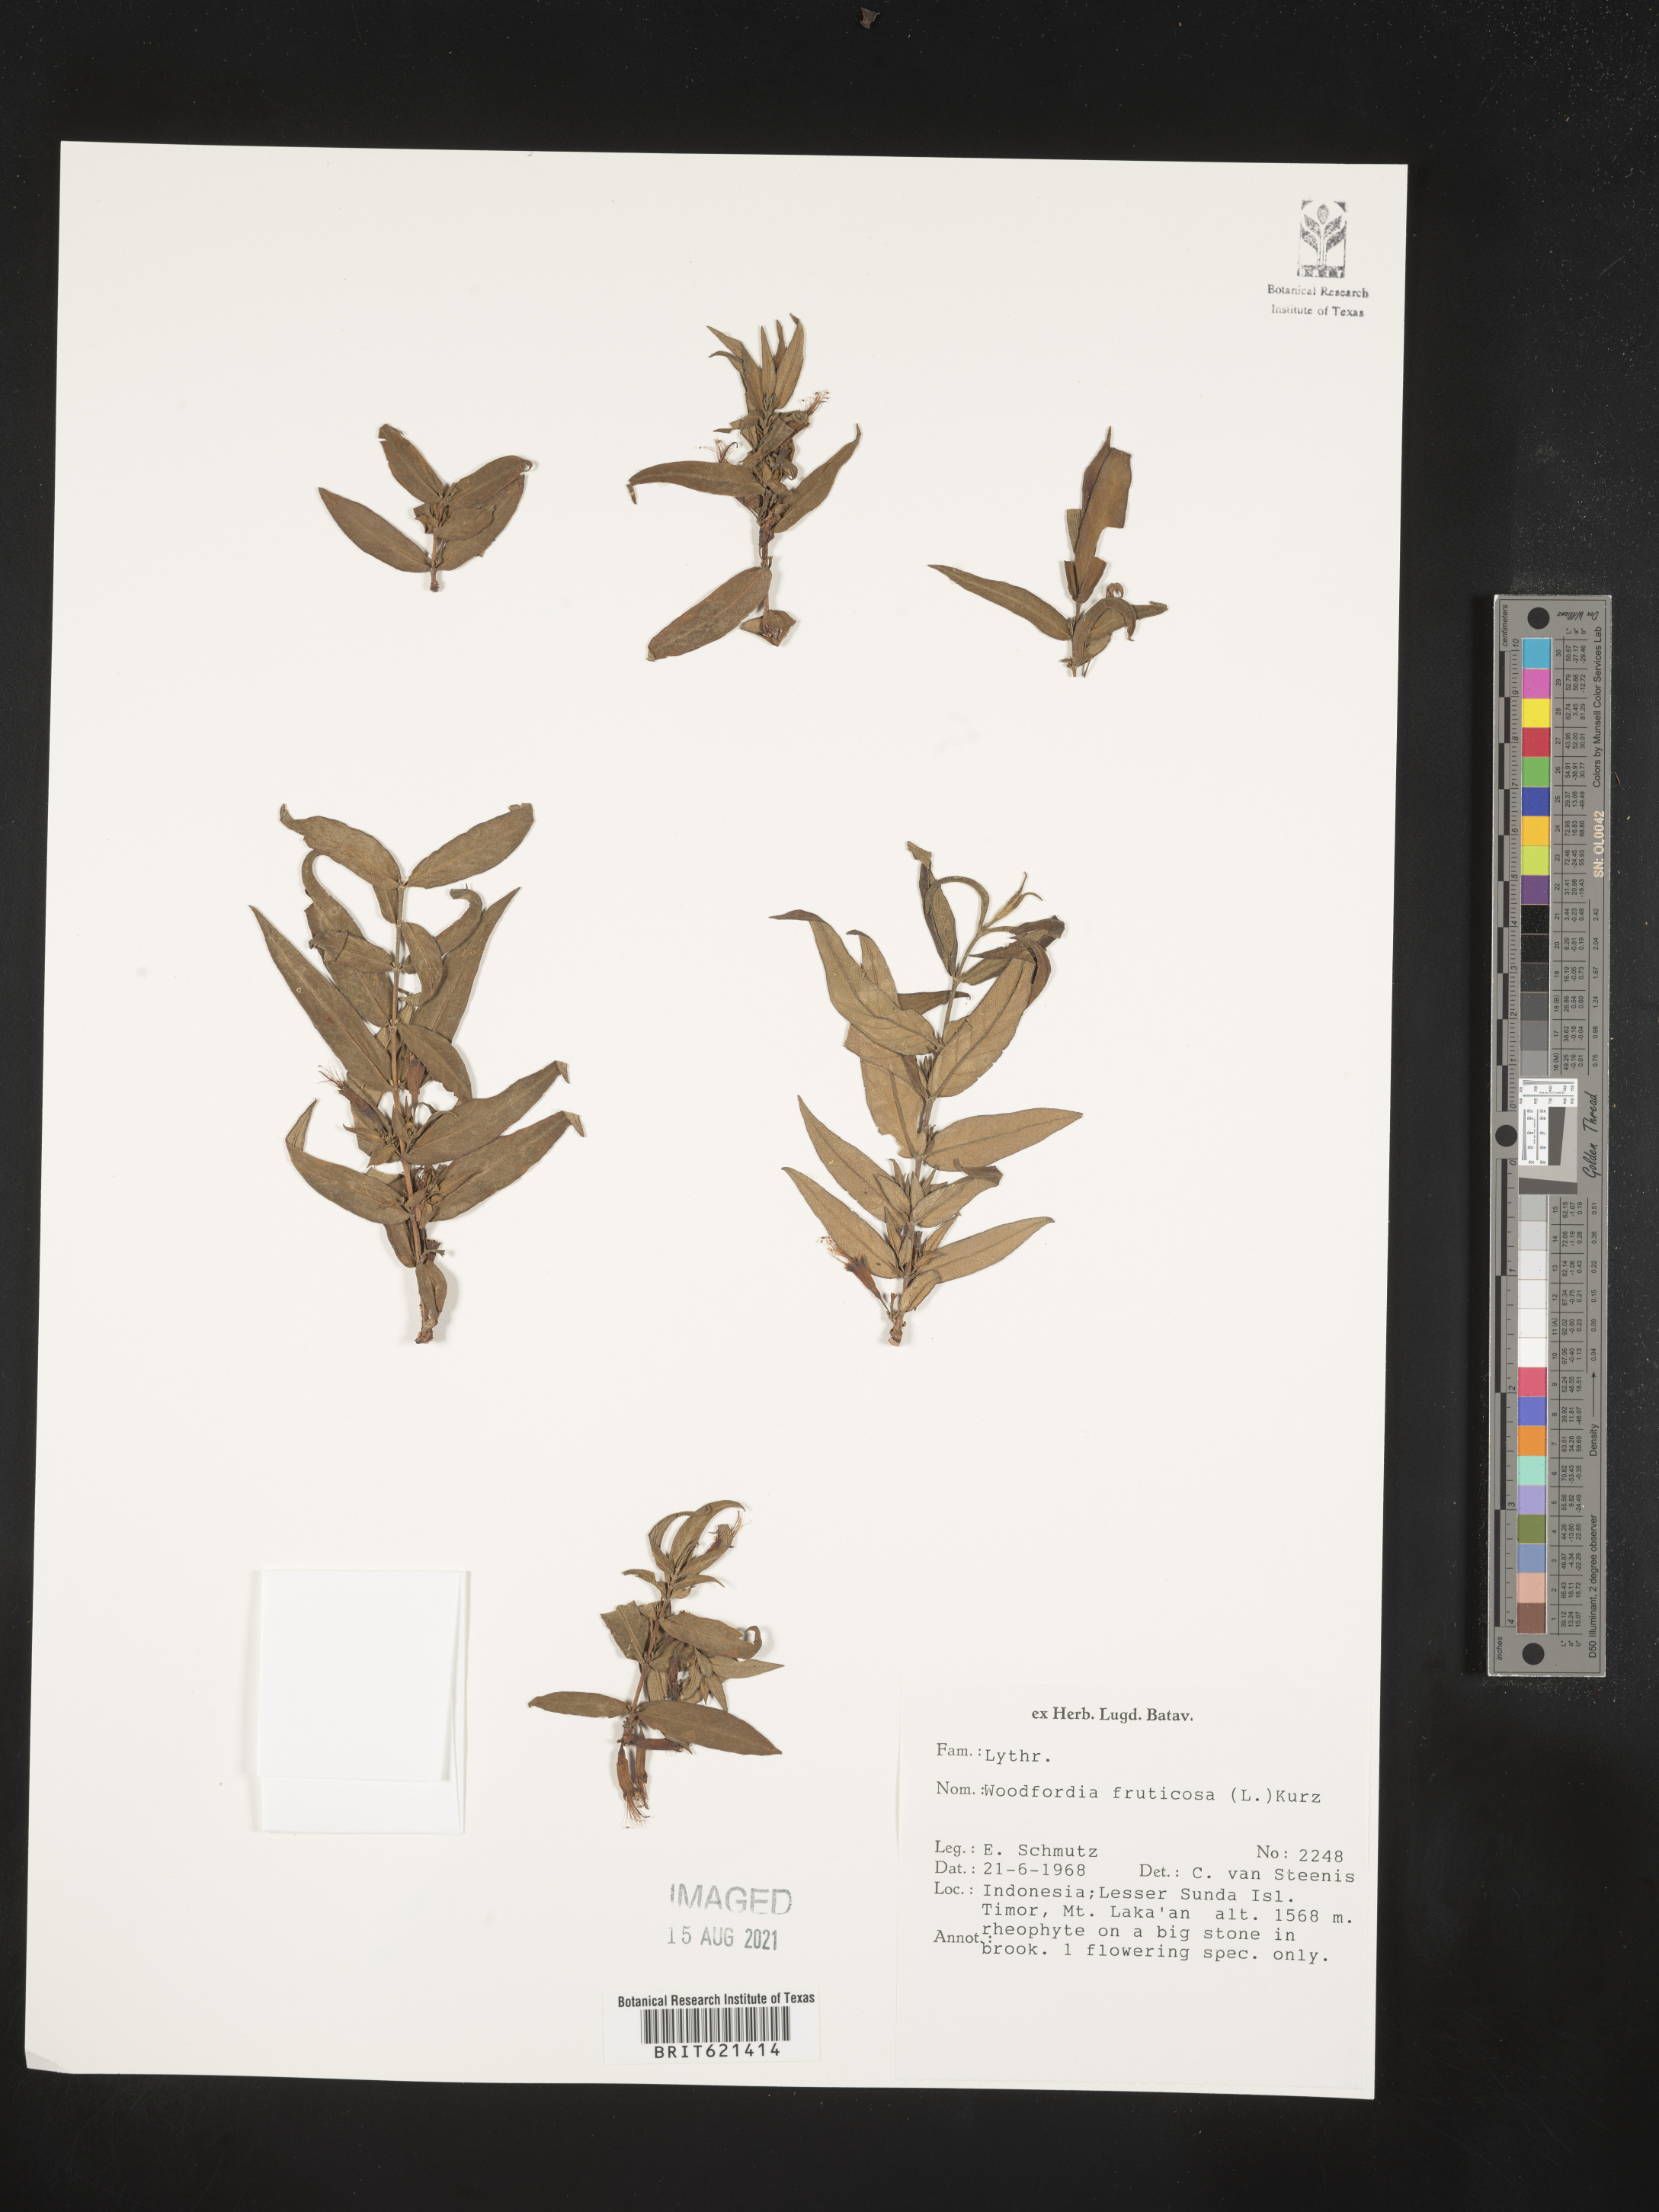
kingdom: Plantae
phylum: Tracheophyta
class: Magnoliopsida
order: Myrtales
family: Lythraceae
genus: Woodfordia
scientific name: Woodfordia fruticosa
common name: Shiranji-tea
